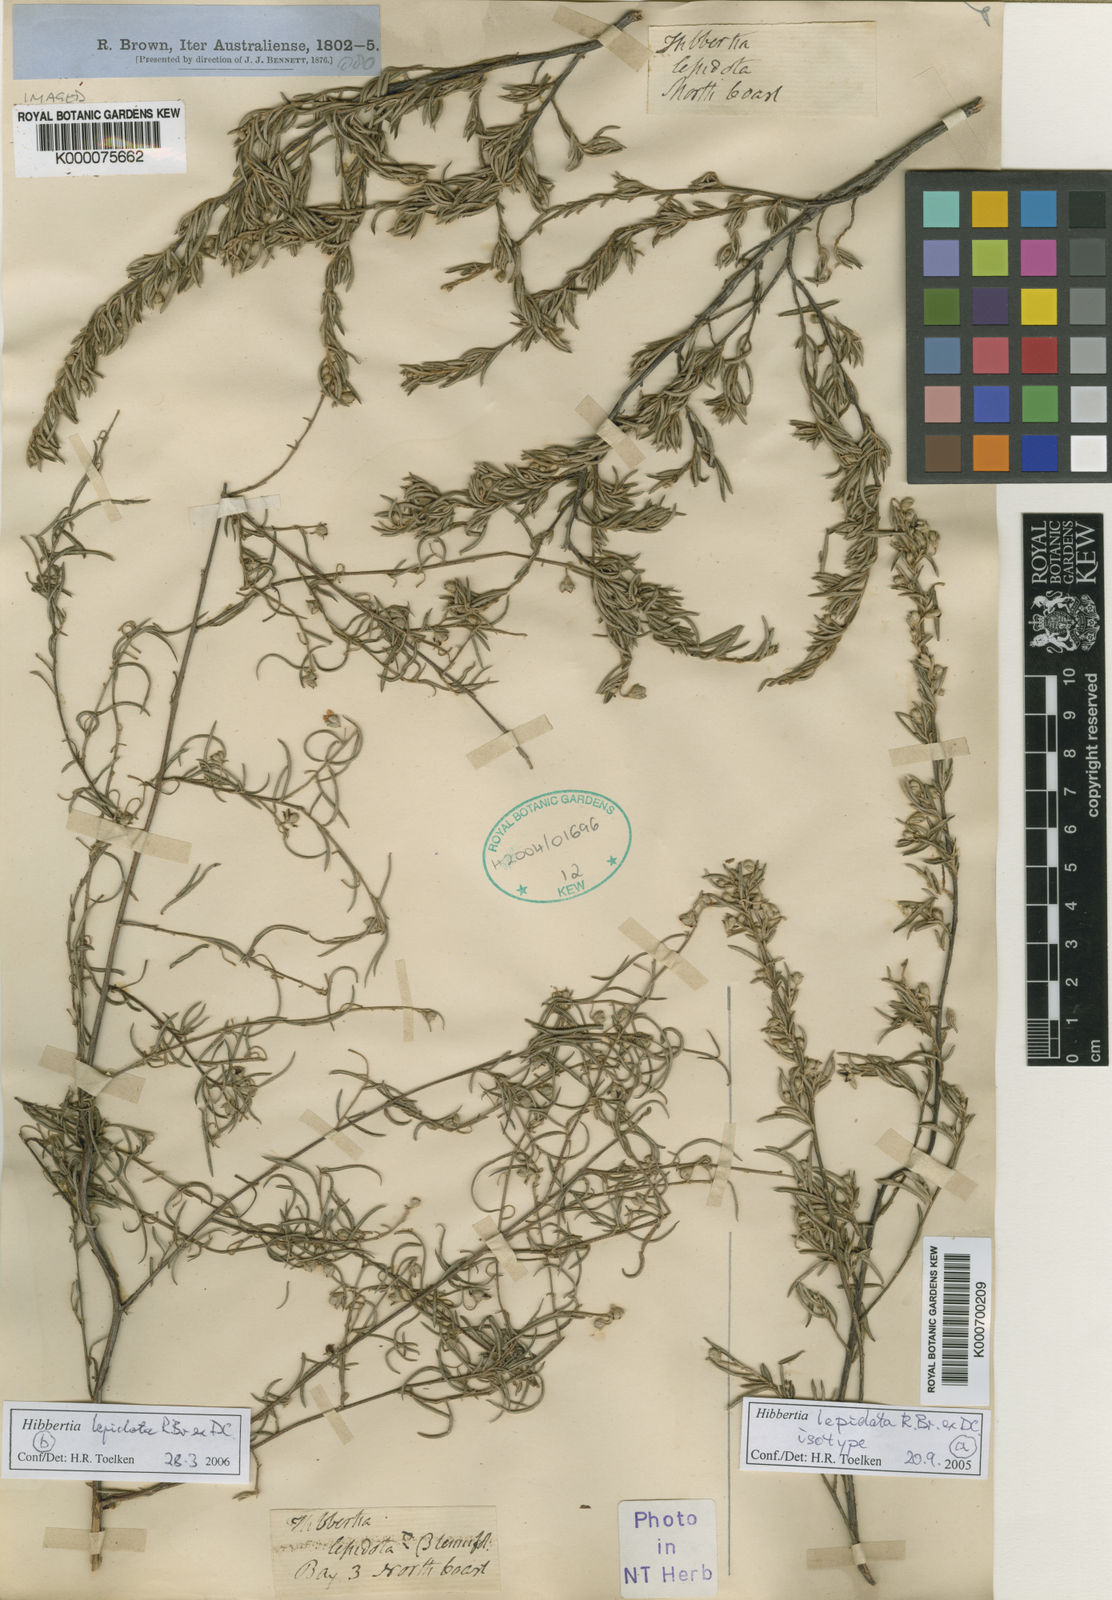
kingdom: Plantae
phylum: Tracheophyta
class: Magnoliopsida
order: Dilleniales
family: Dilleniaceae
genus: Hibbertia
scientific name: Hibbertia lepidota
